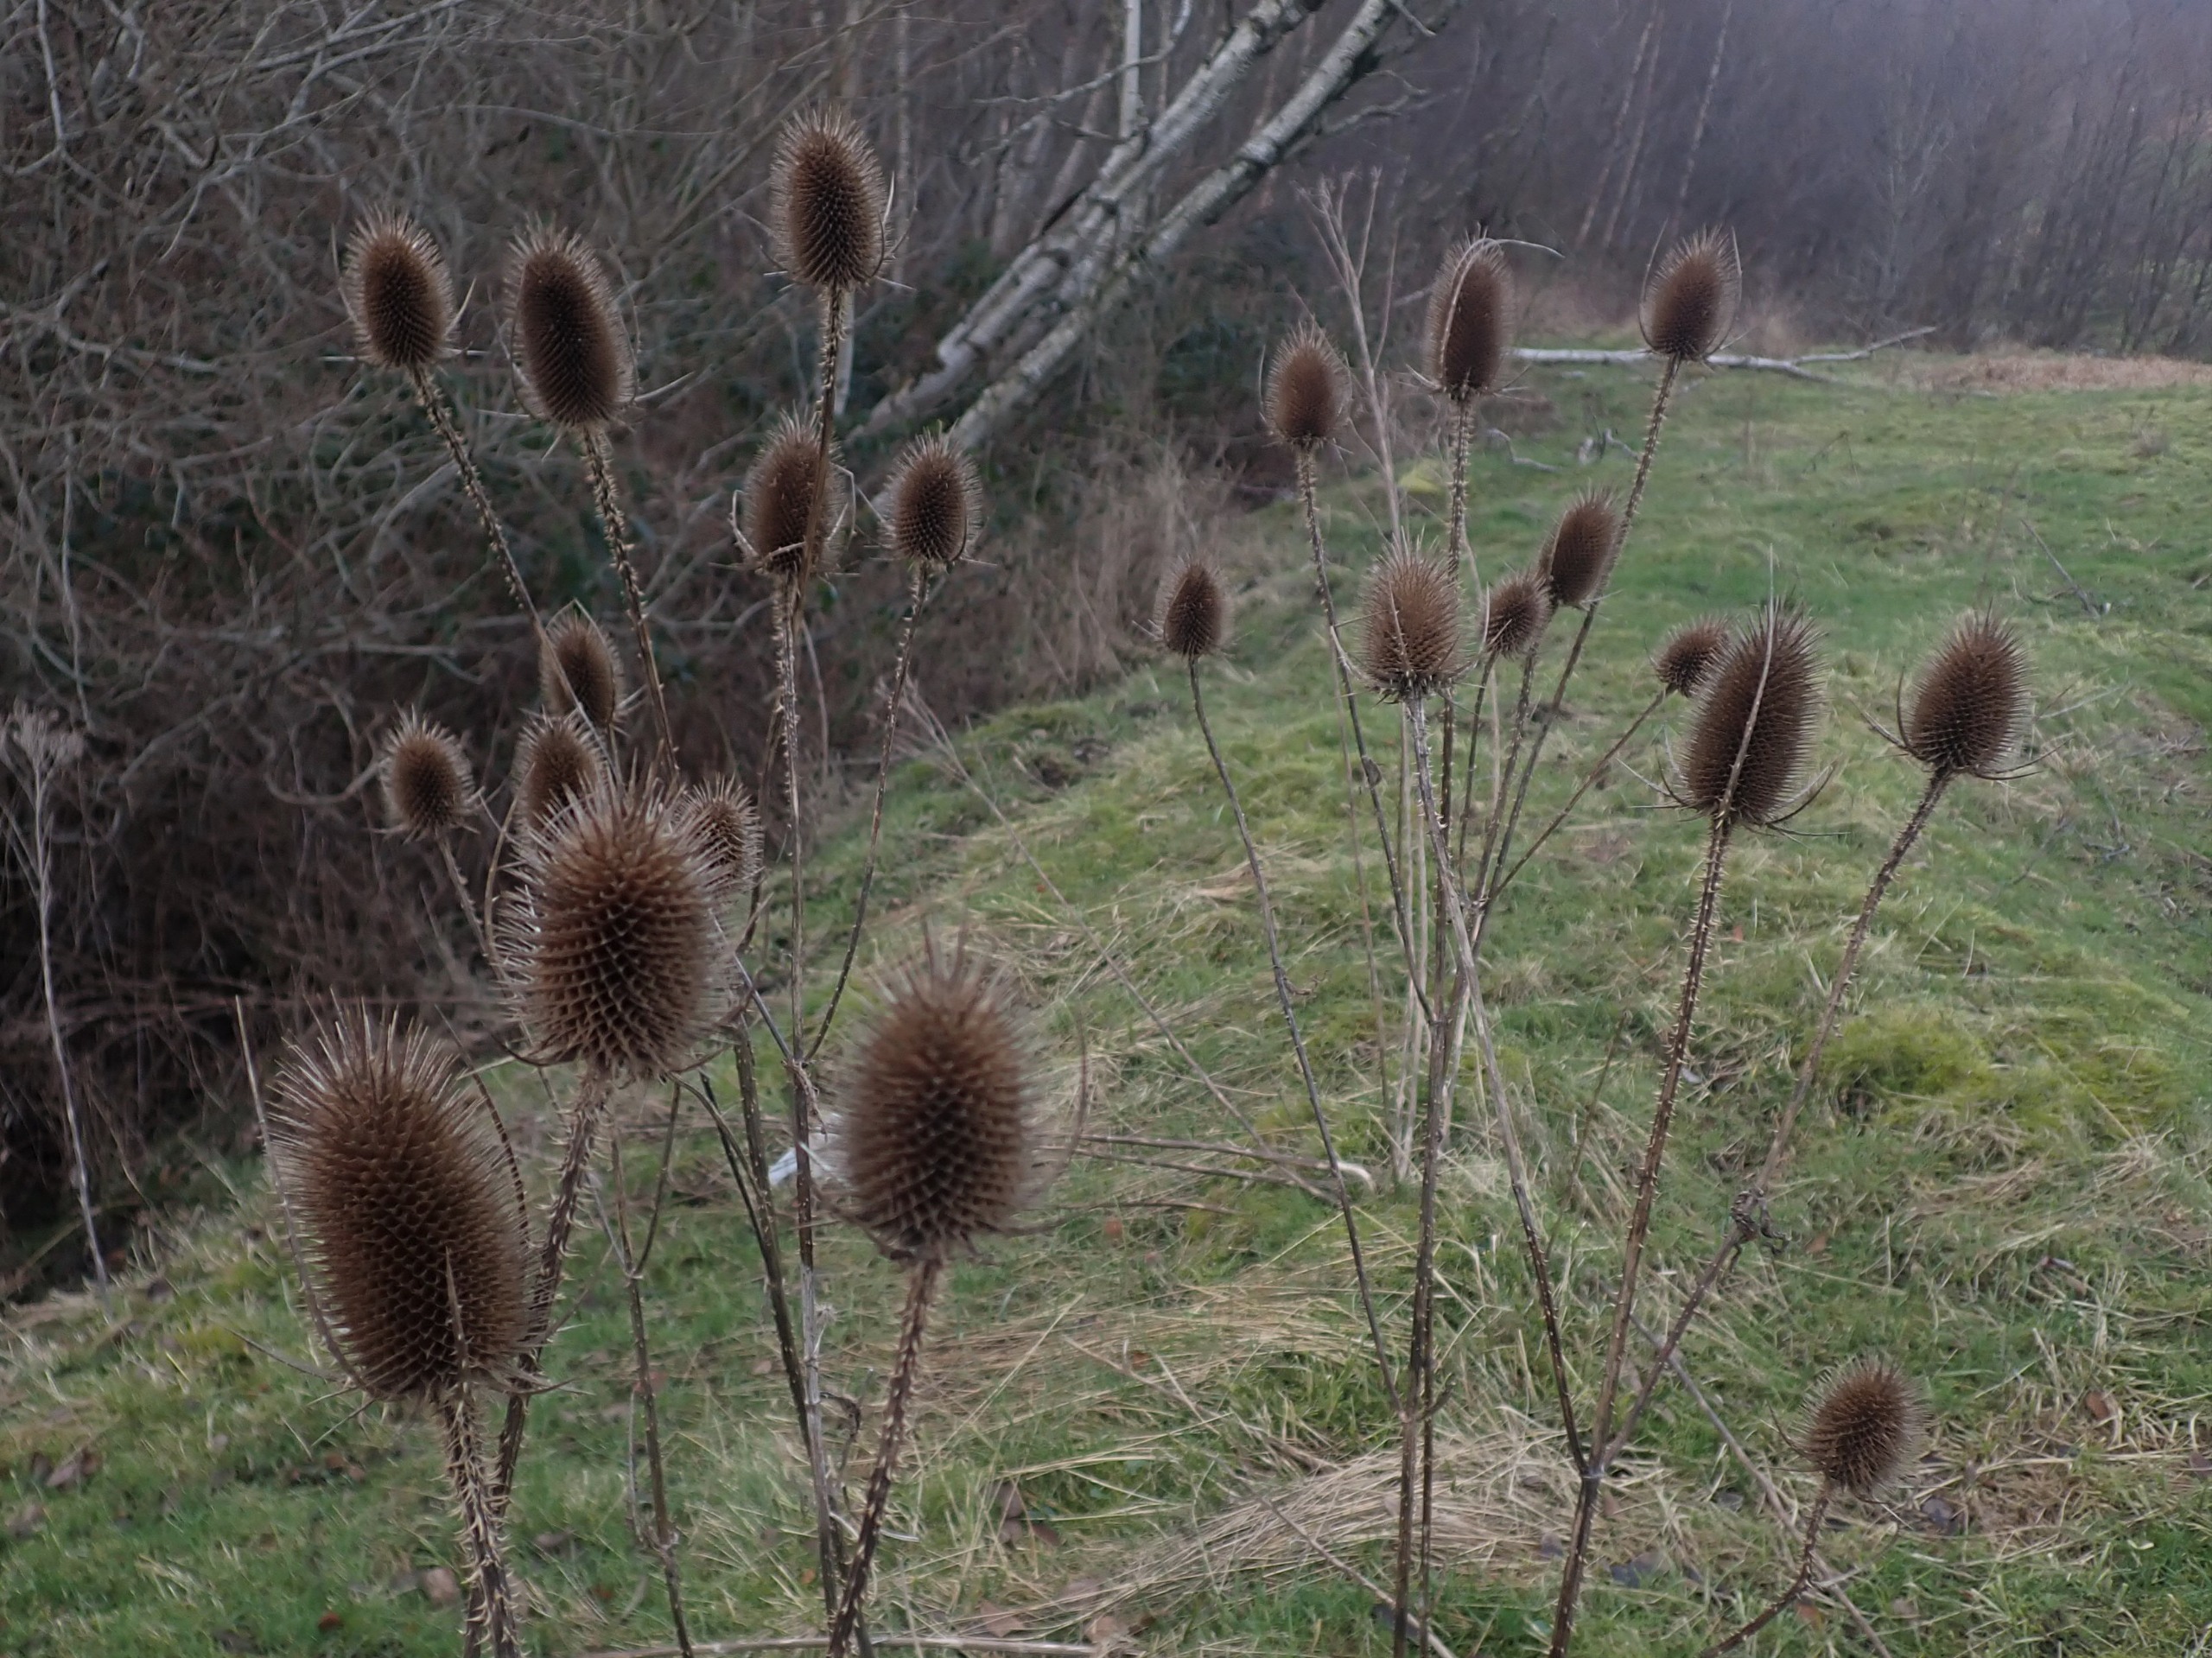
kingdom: Plantae
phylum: Tracheophyta
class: Magnoliopsida
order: Dipsacales
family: Caprifoliaceae
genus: Dipsacus
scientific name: Dipsacus fullonum
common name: Gærde-kartebolle
